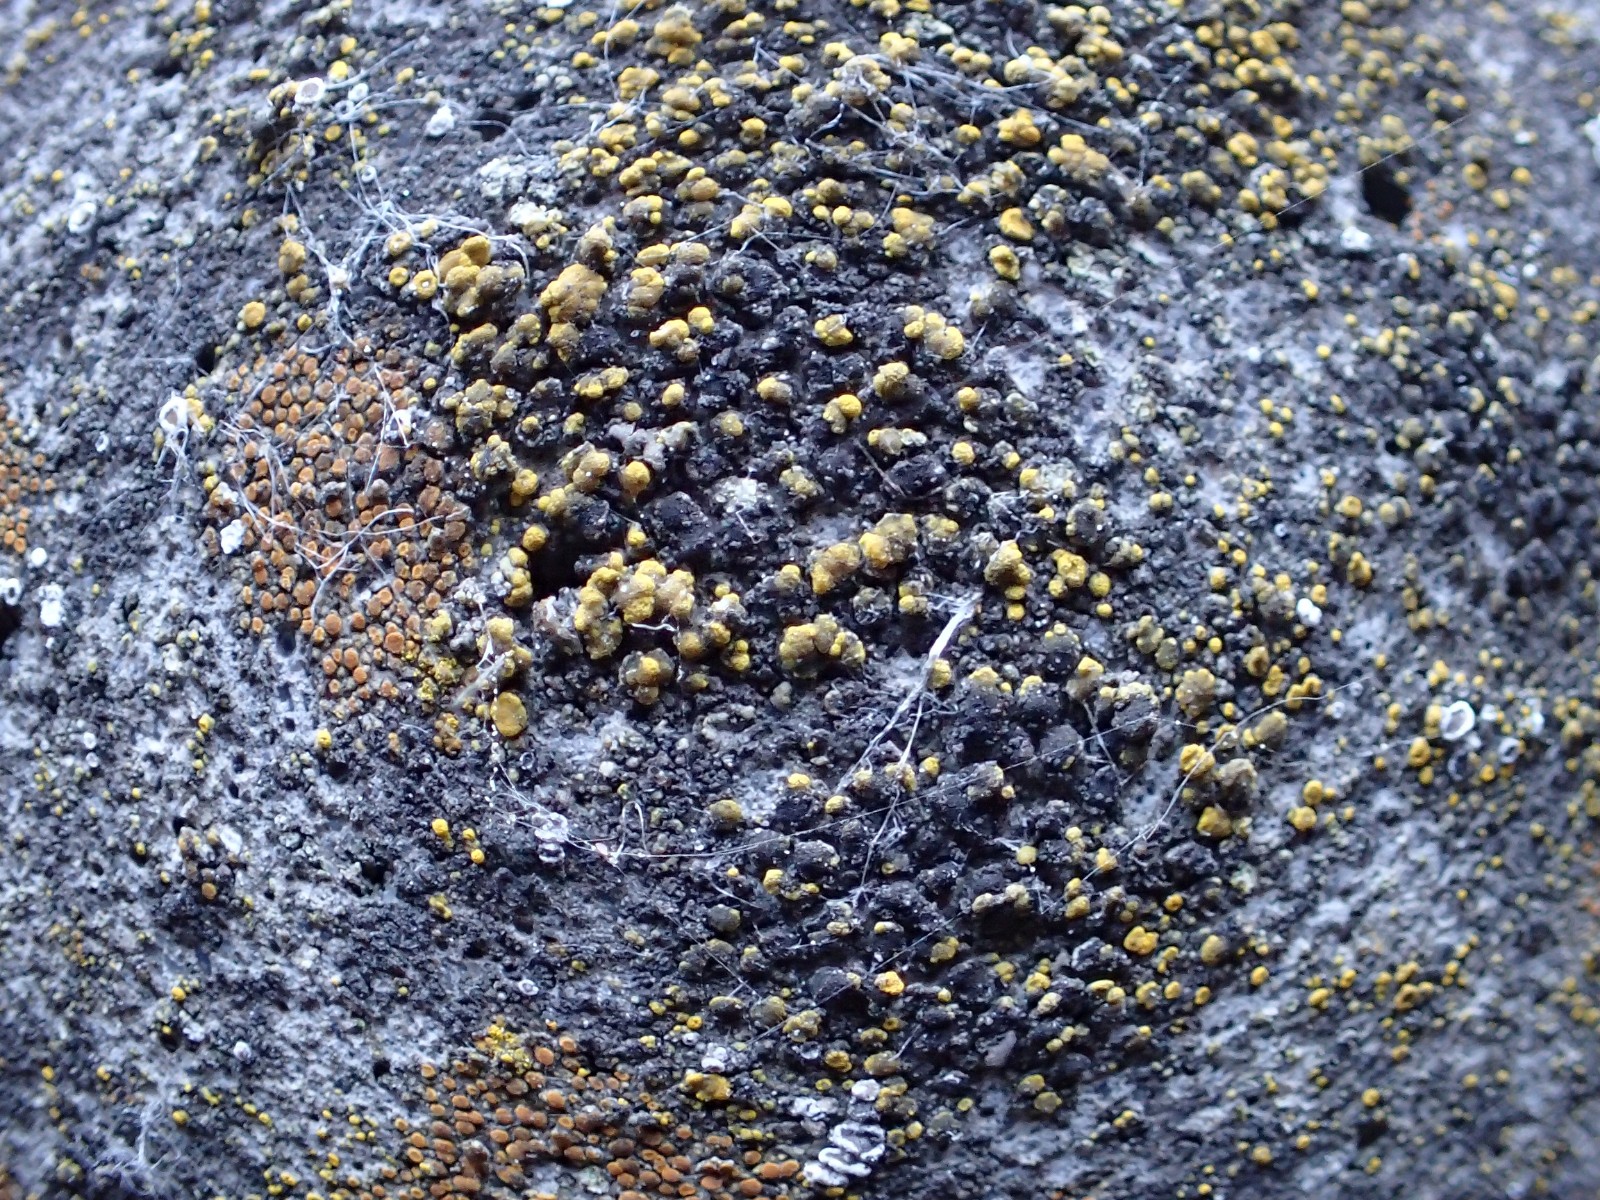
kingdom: Fungi
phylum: Ascomycota
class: Candelariomycetes
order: Candelariales
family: Candelariaceae
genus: Candelariella
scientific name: Candelariella aurella
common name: liden æggeblommelav
